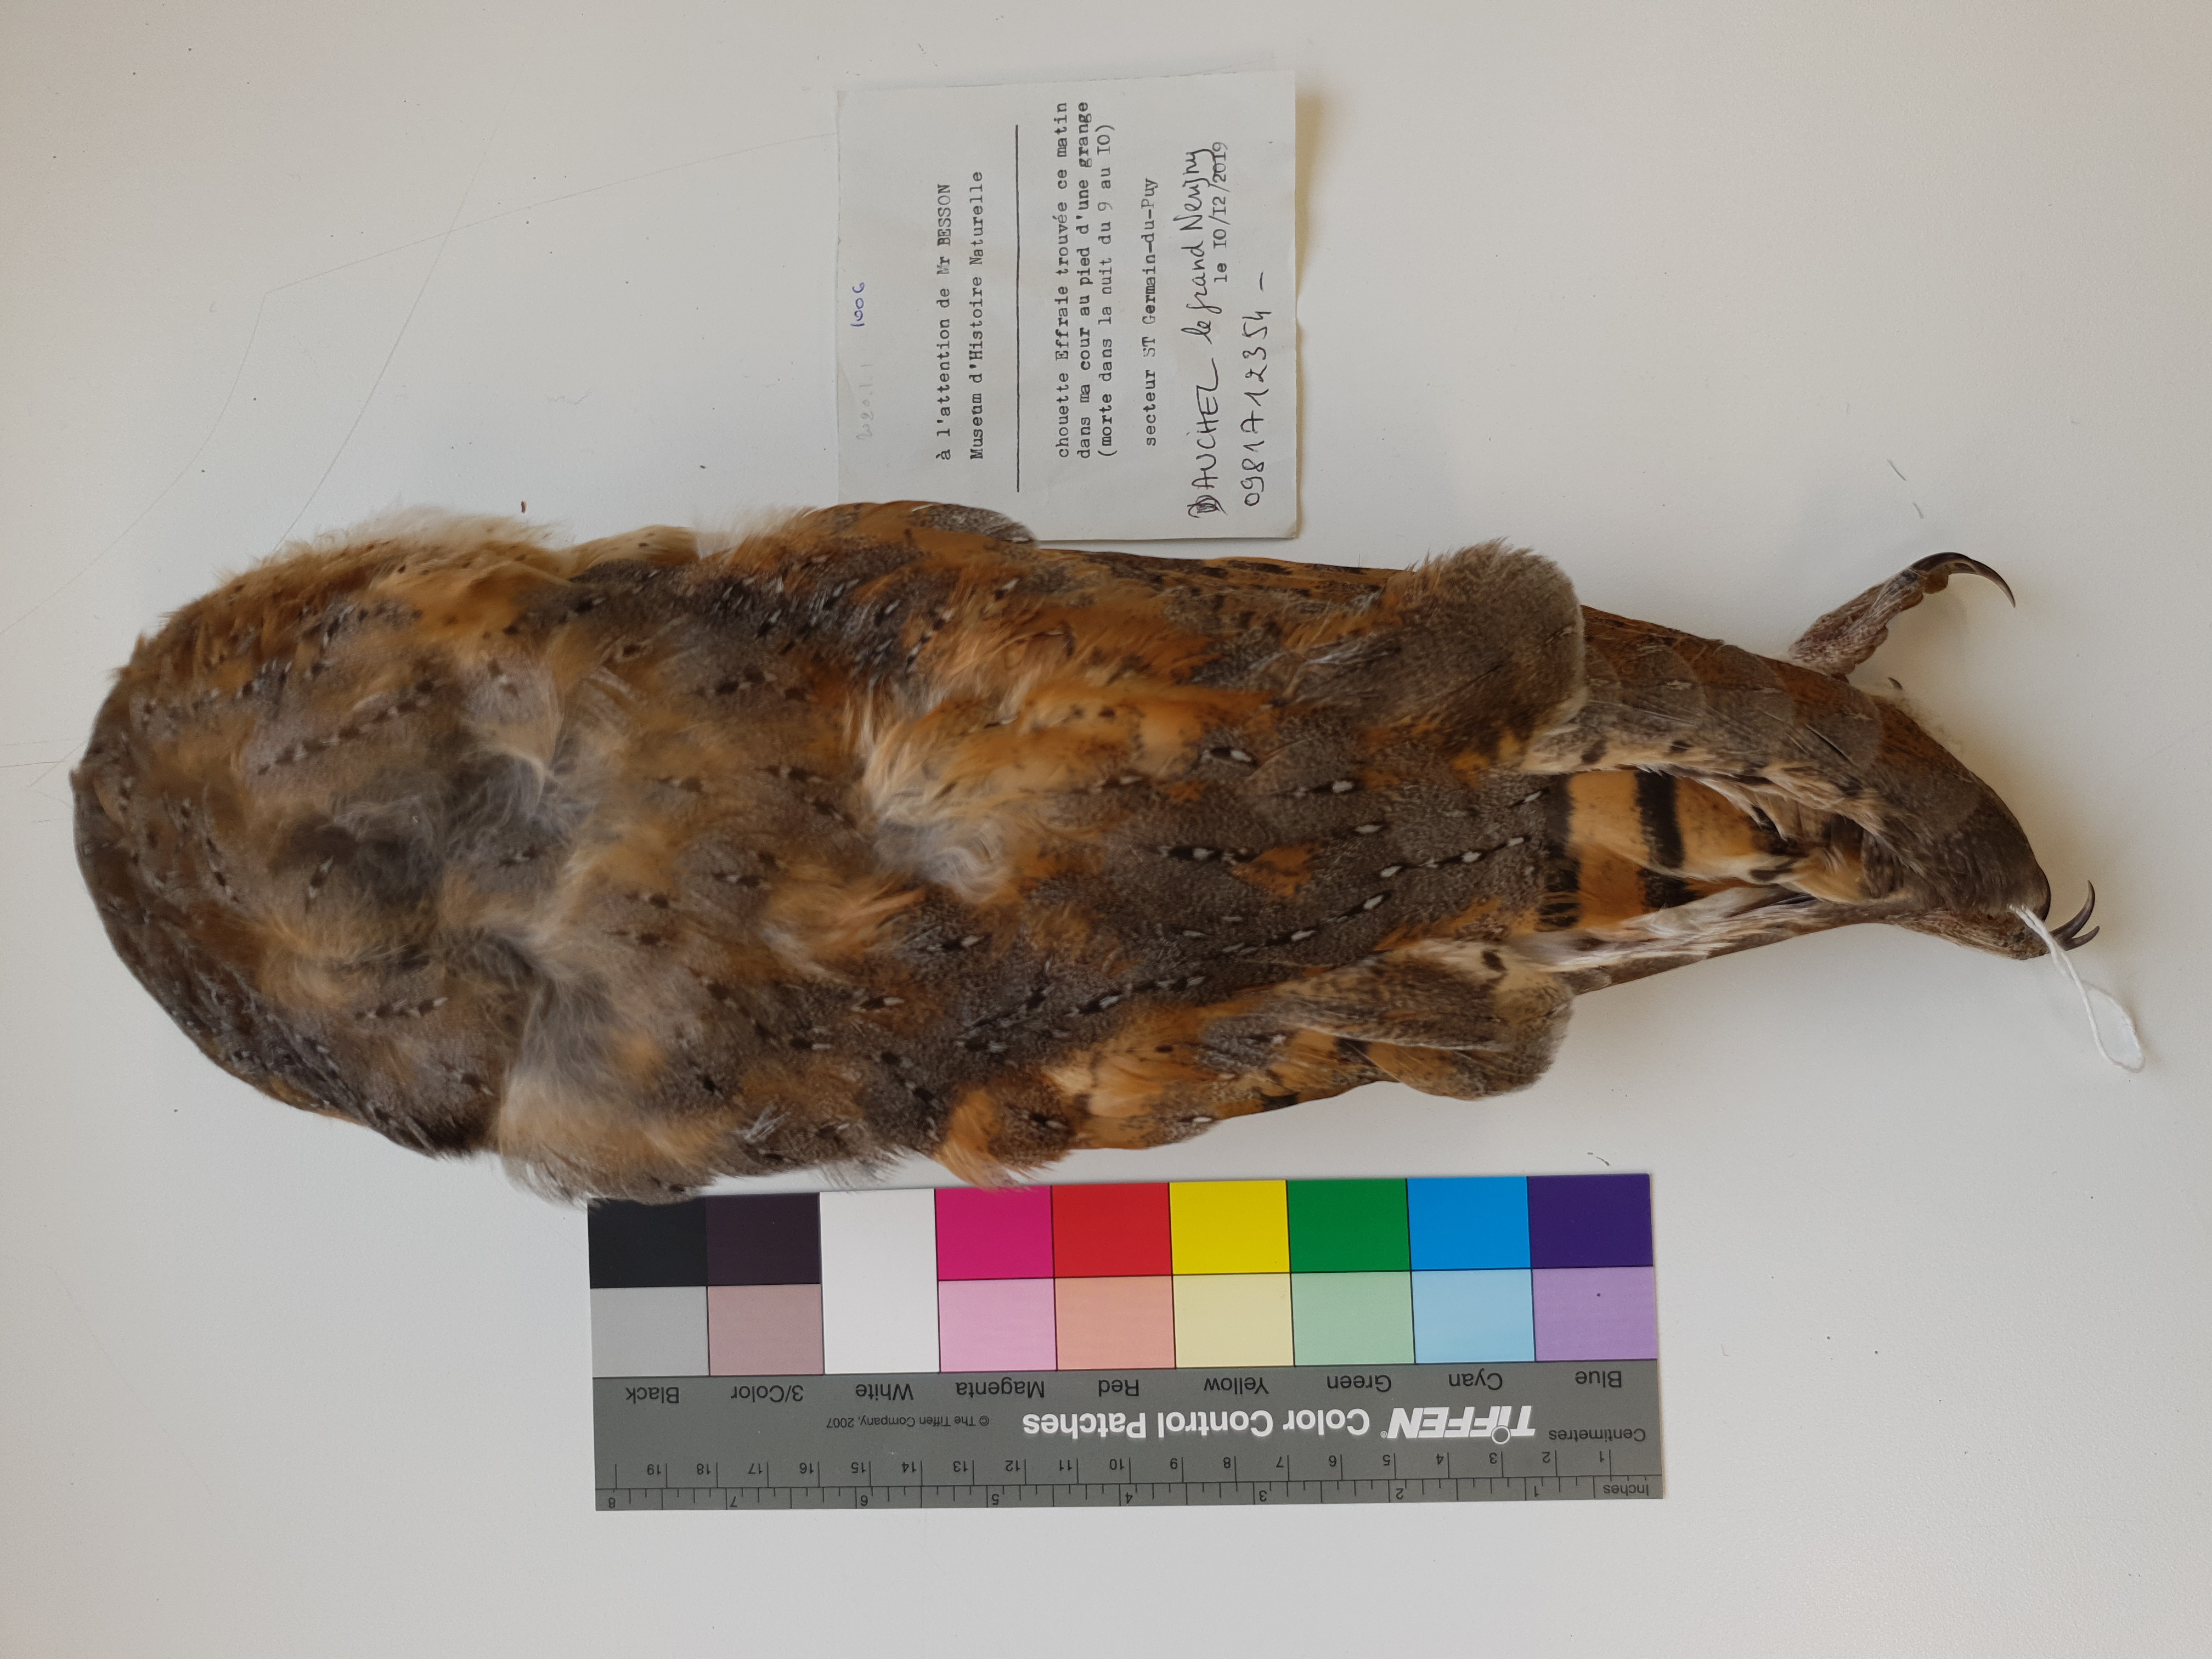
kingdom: Animalia
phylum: Chordata
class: Aves
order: Strigiformes
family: Tytonidae
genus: Tyto
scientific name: Tyto alba
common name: Barn owl
